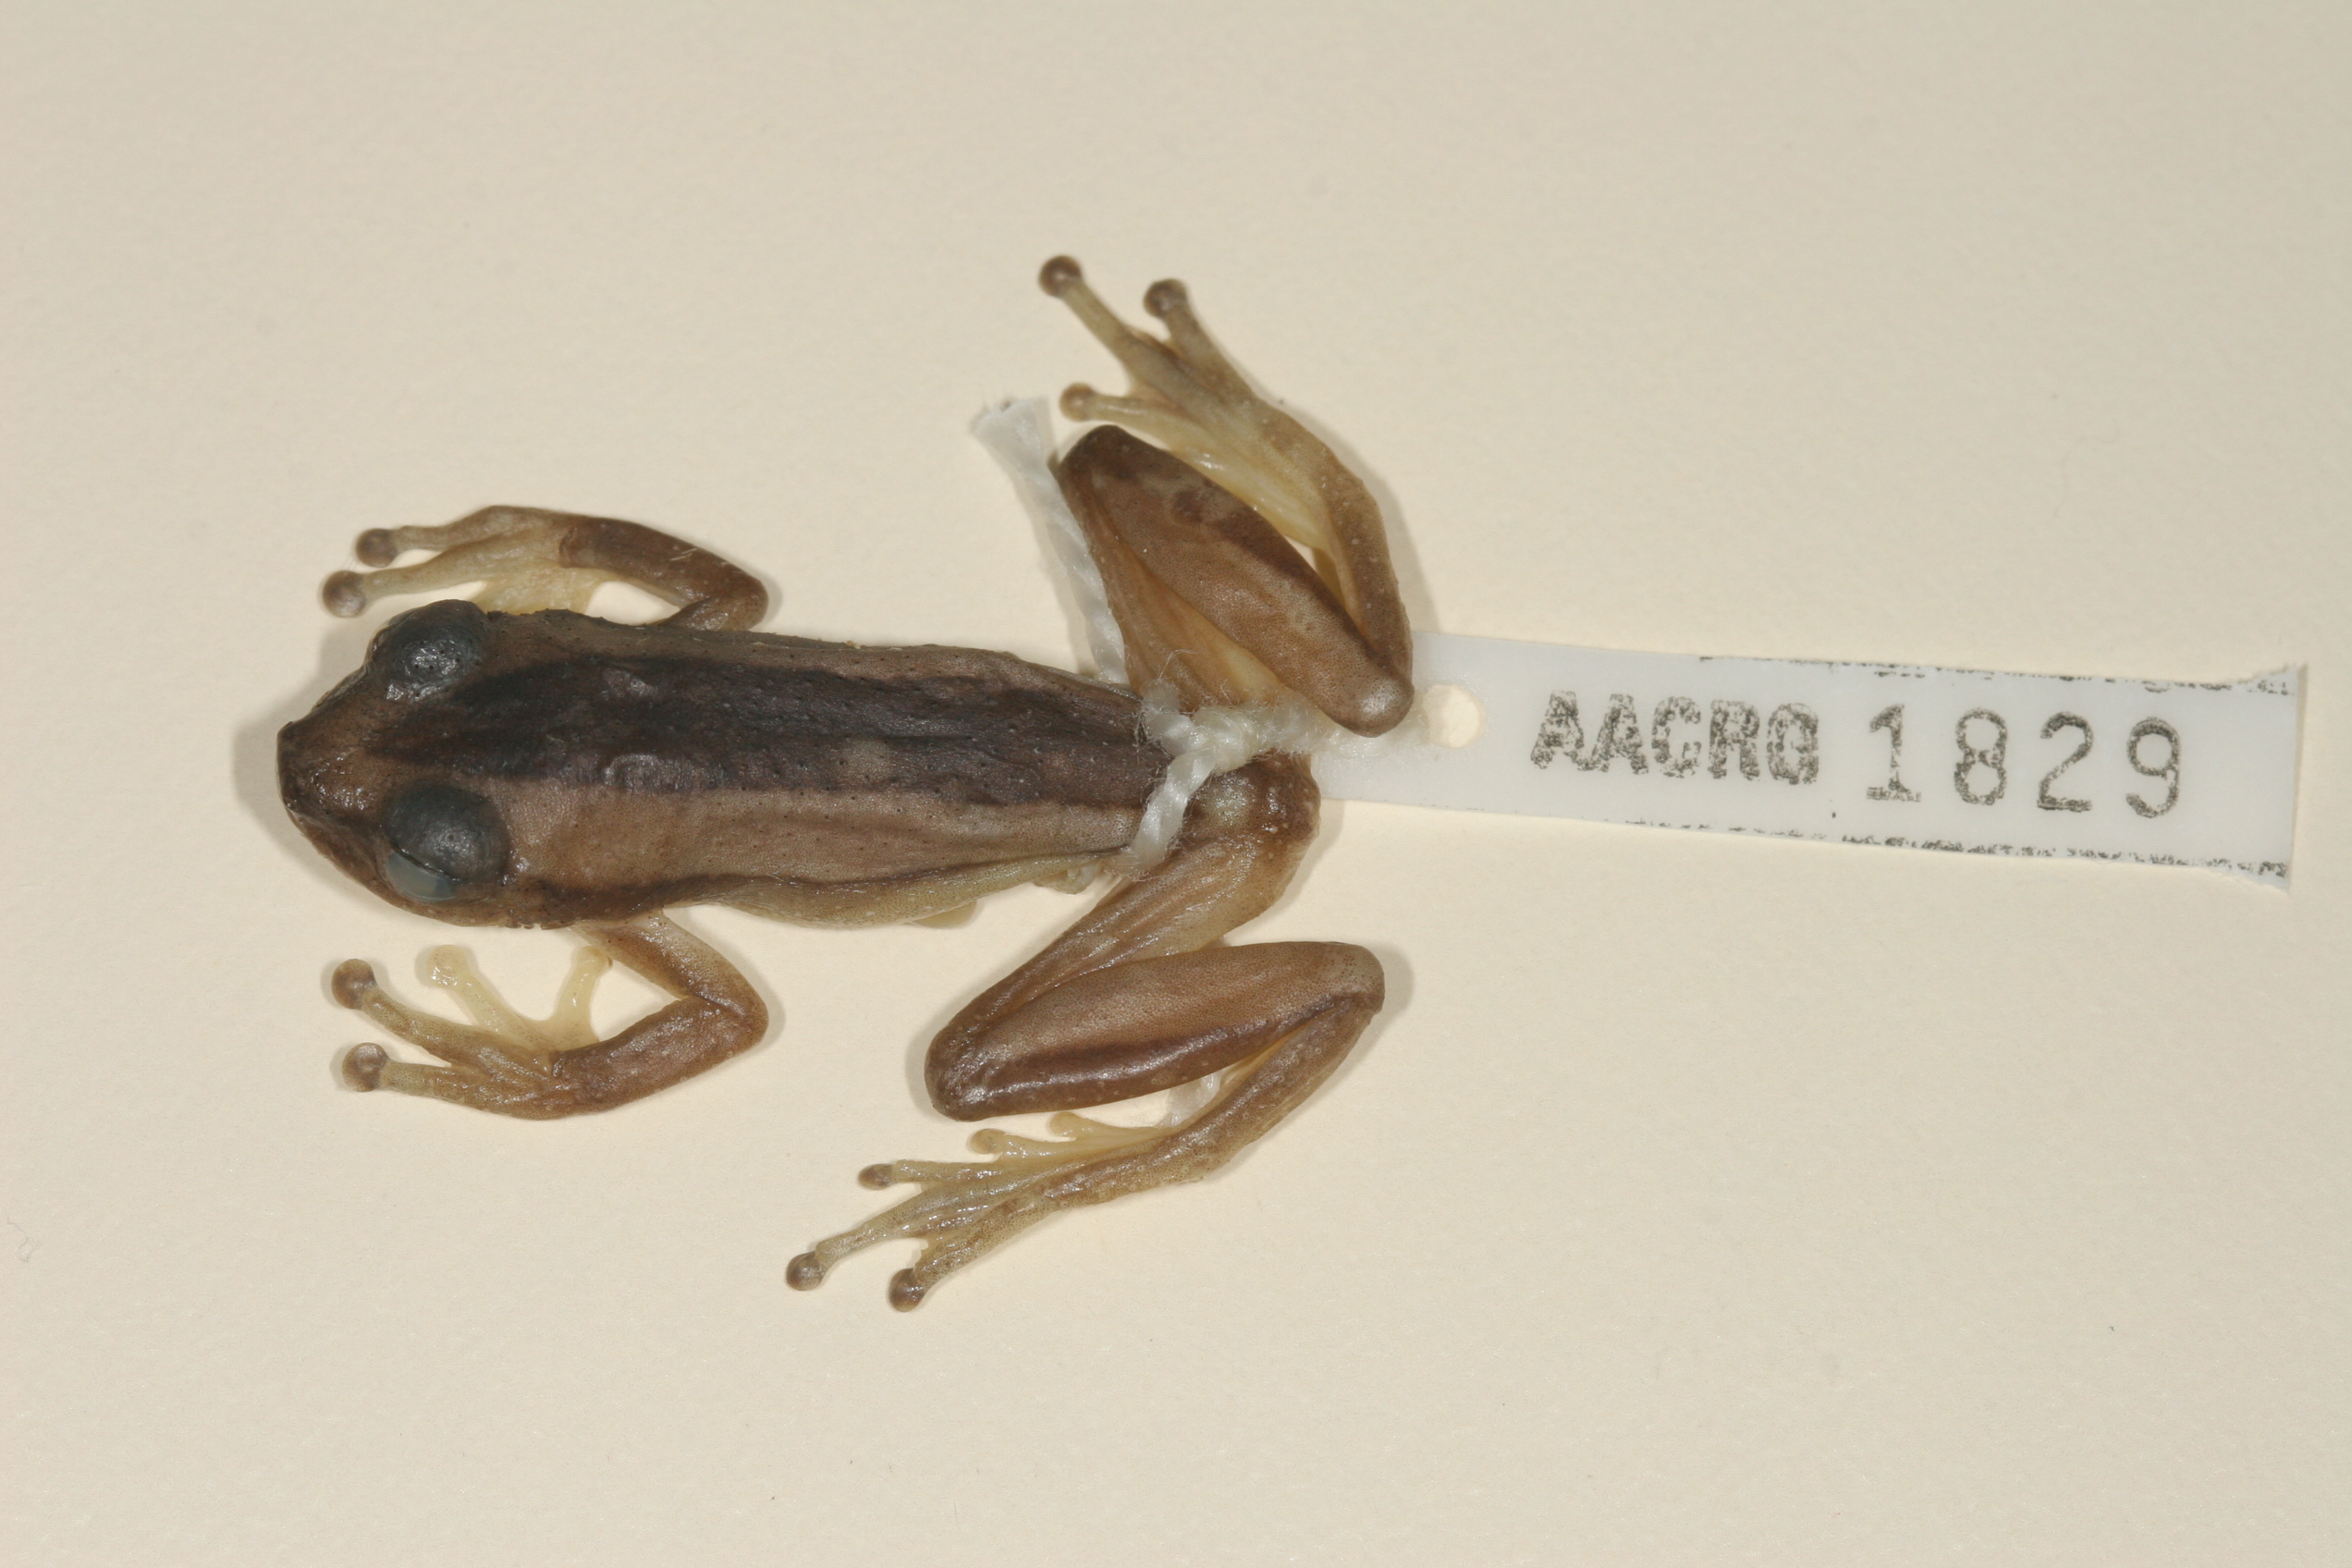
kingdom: Animalia
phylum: Chordata
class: Amphibia
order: Anura
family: Hyperoliidae
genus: Afrixalus
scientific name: Afrixalus fornasini
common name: Fornasini's spiny reed frog
